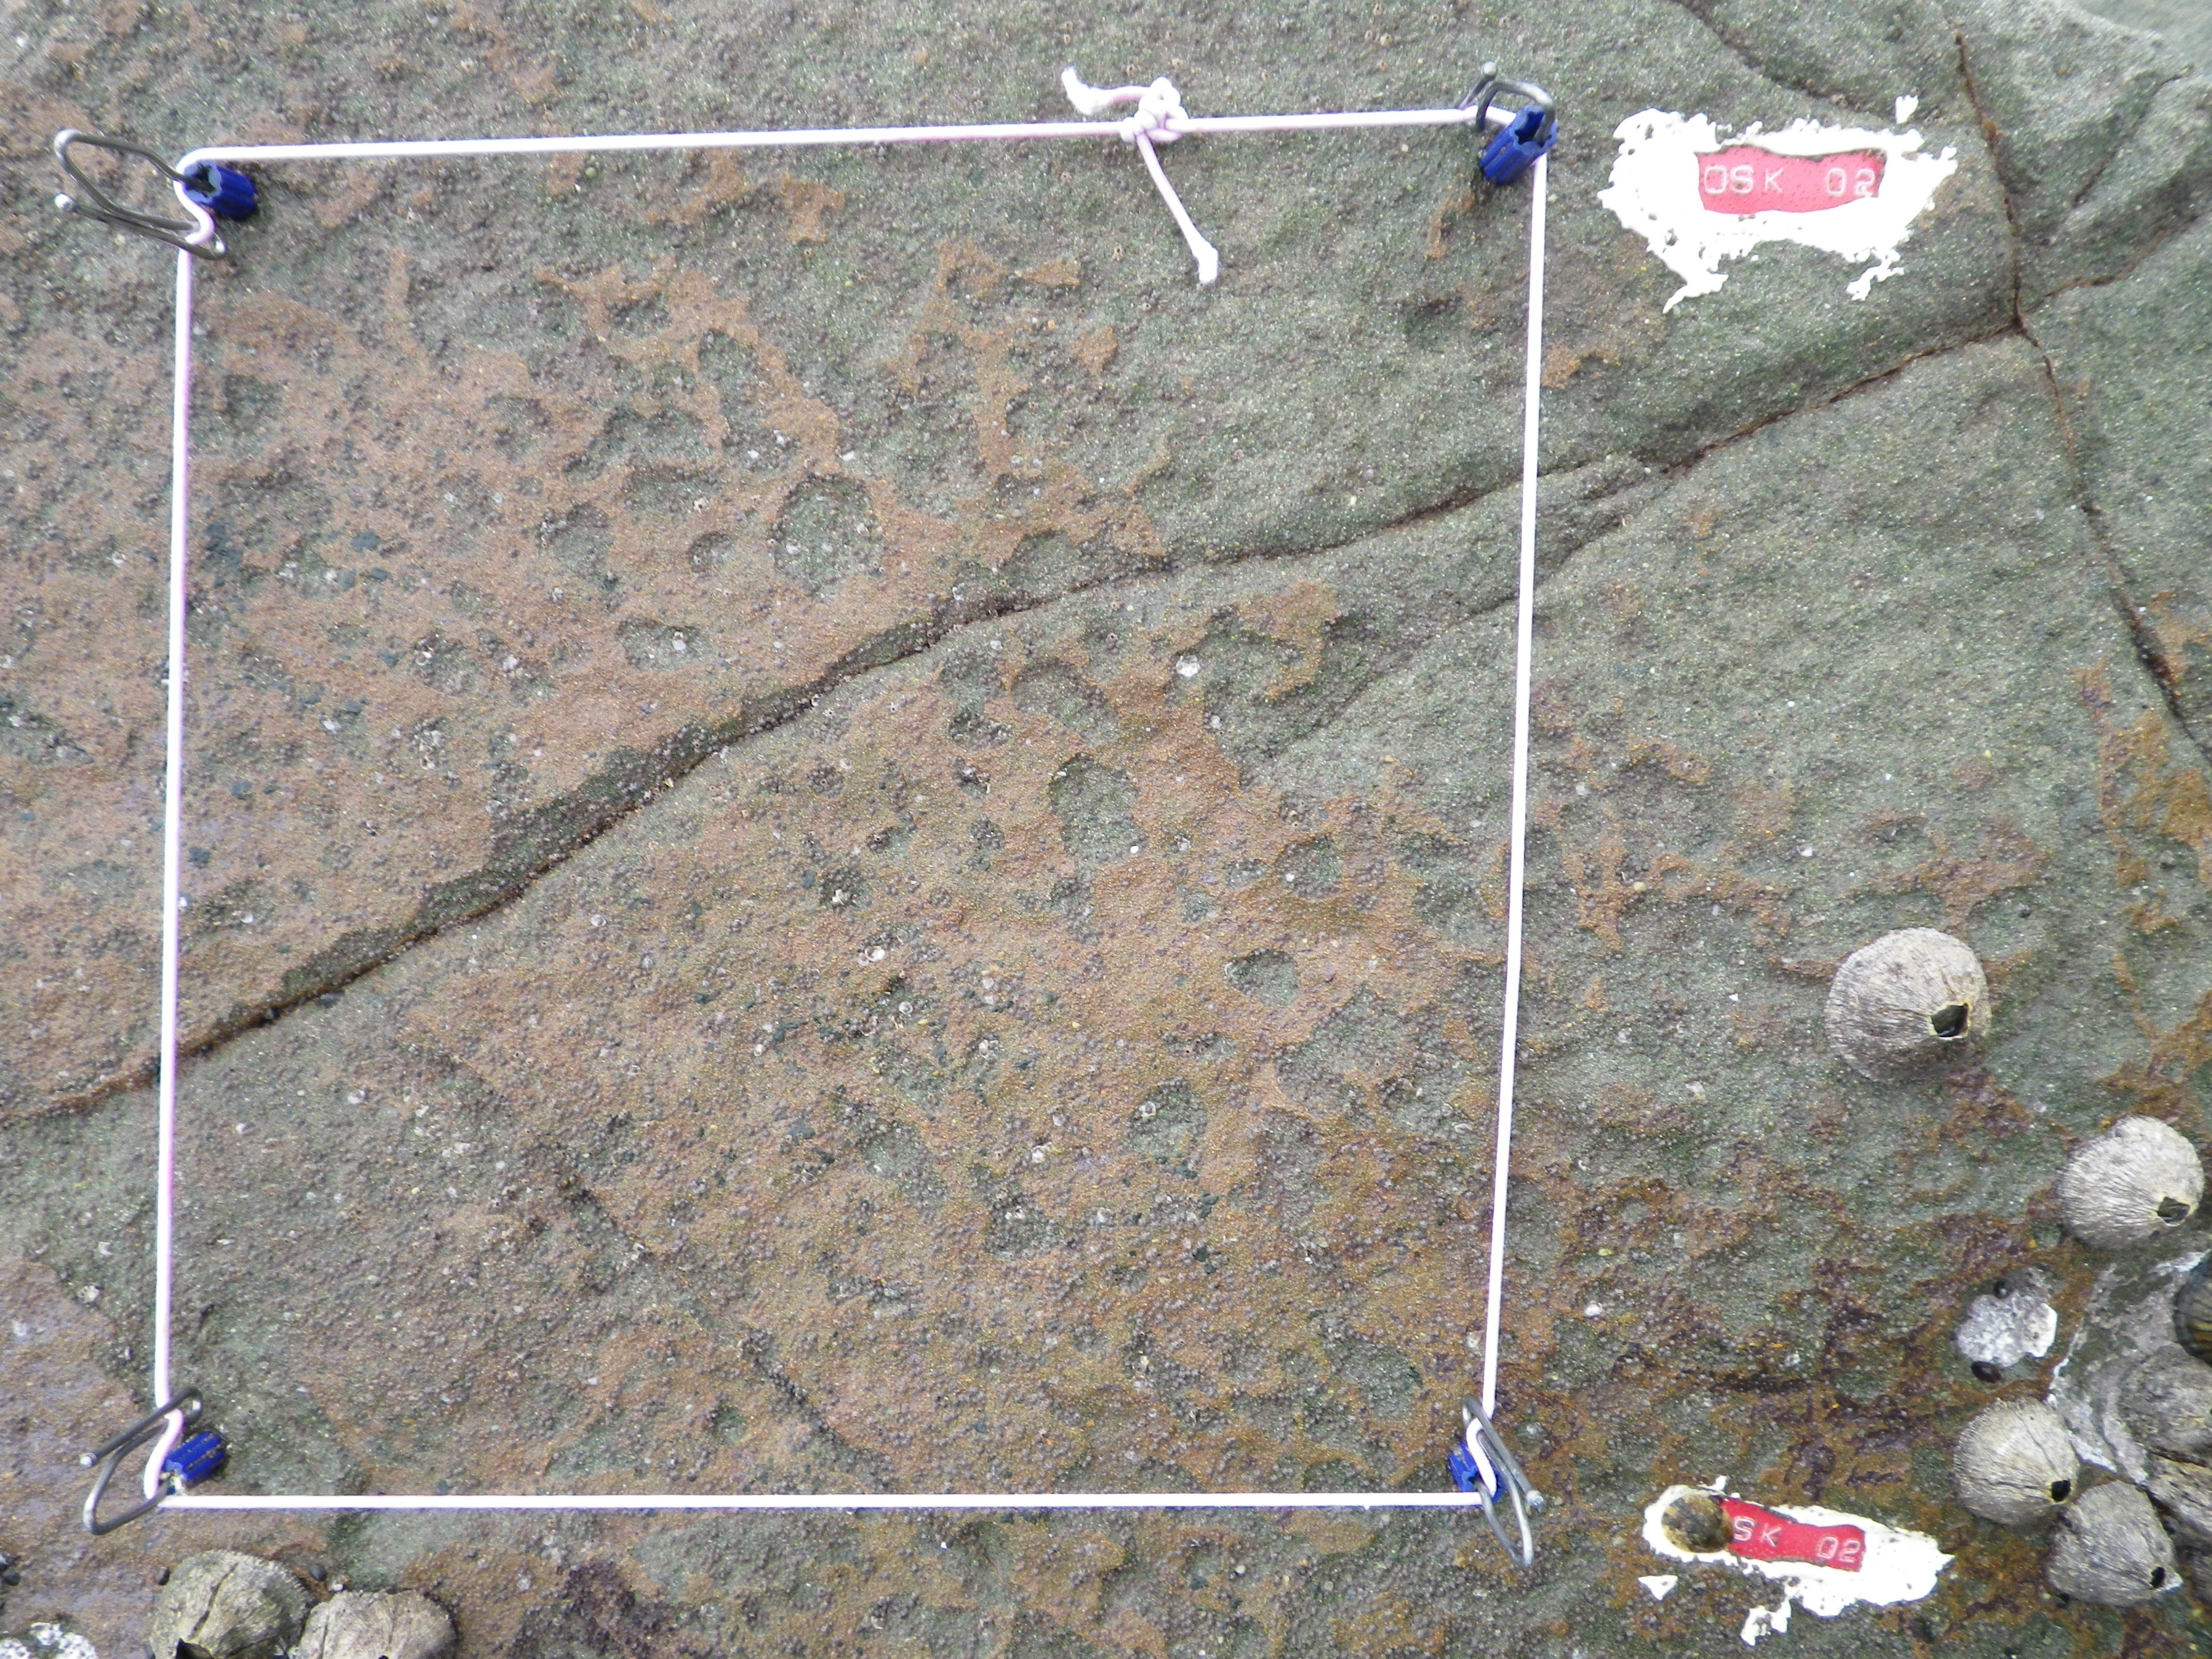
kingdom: Animalia
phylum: Arthropoda
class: Maxillopoda
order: Sessilia
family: Chthamalidae
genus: Chthamalus
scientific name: Chthamalus challengeri
